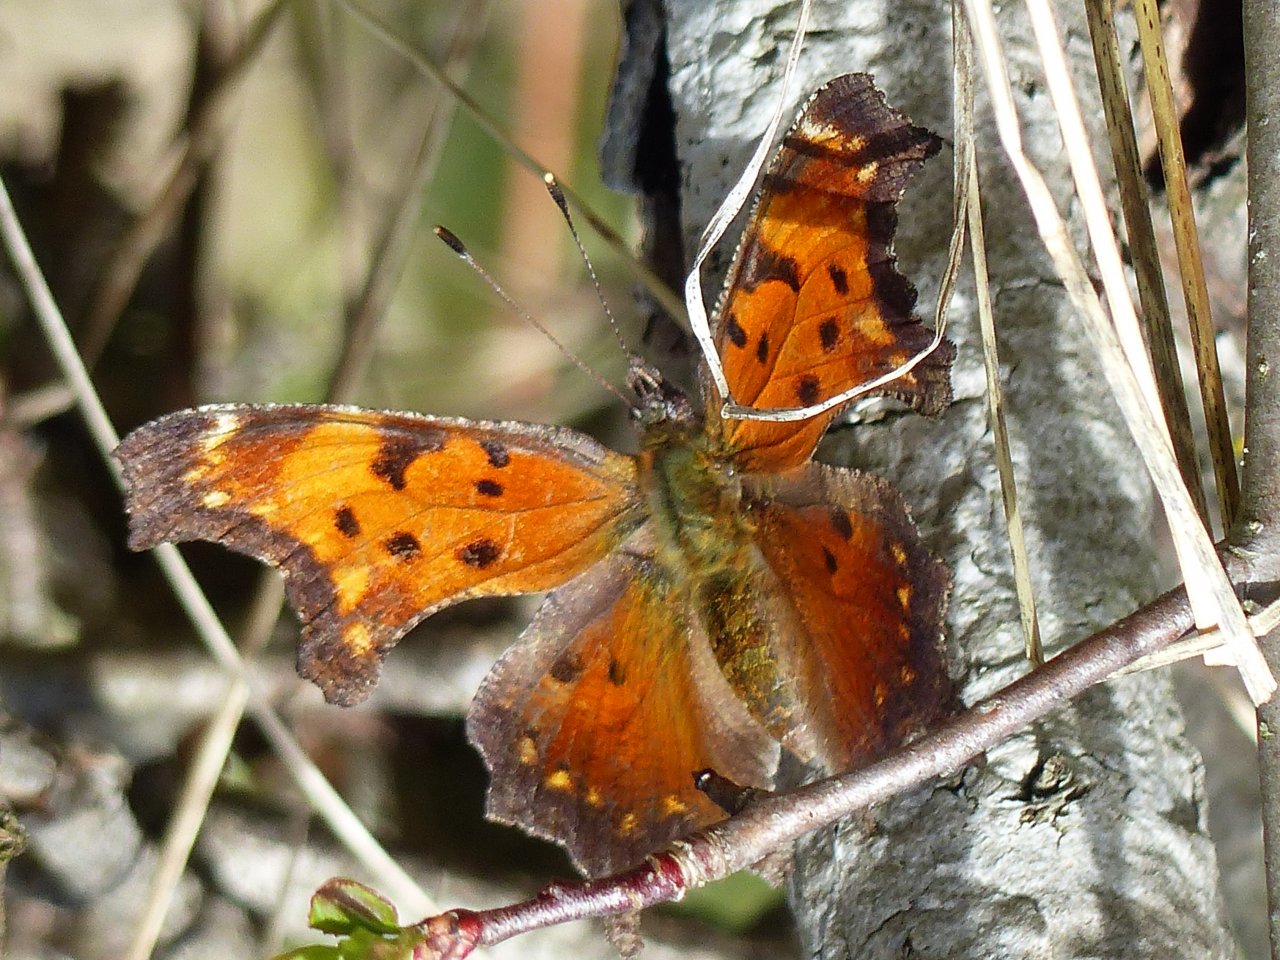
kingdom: Animalia
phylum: Arthropoda
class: Insecta
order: Lepidoptera
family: Nymphalidae
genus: Polygonia
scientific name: Polygonia progne
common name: Gray Comma
